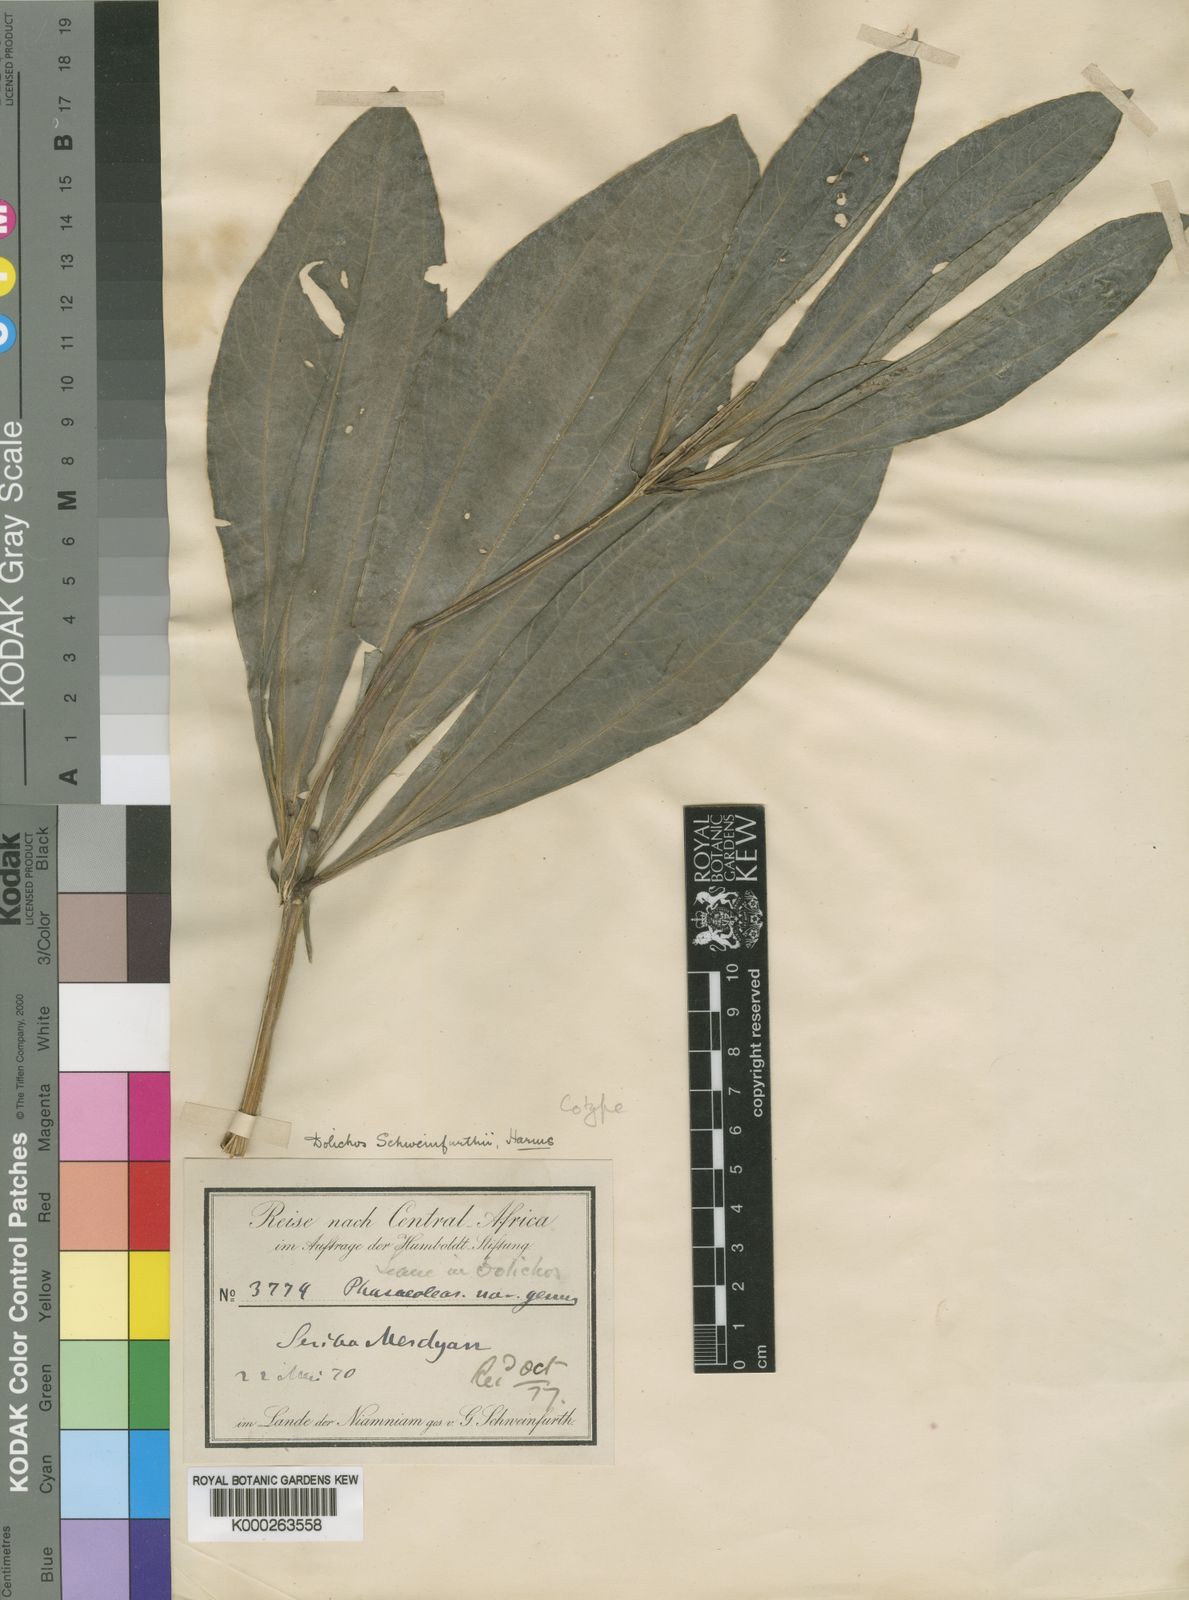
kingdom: Plantae
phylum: Tracheophyta
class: Magnoliopsida
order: Fabales
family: Fabaceae
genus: Dolichos
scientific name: Dolichos
